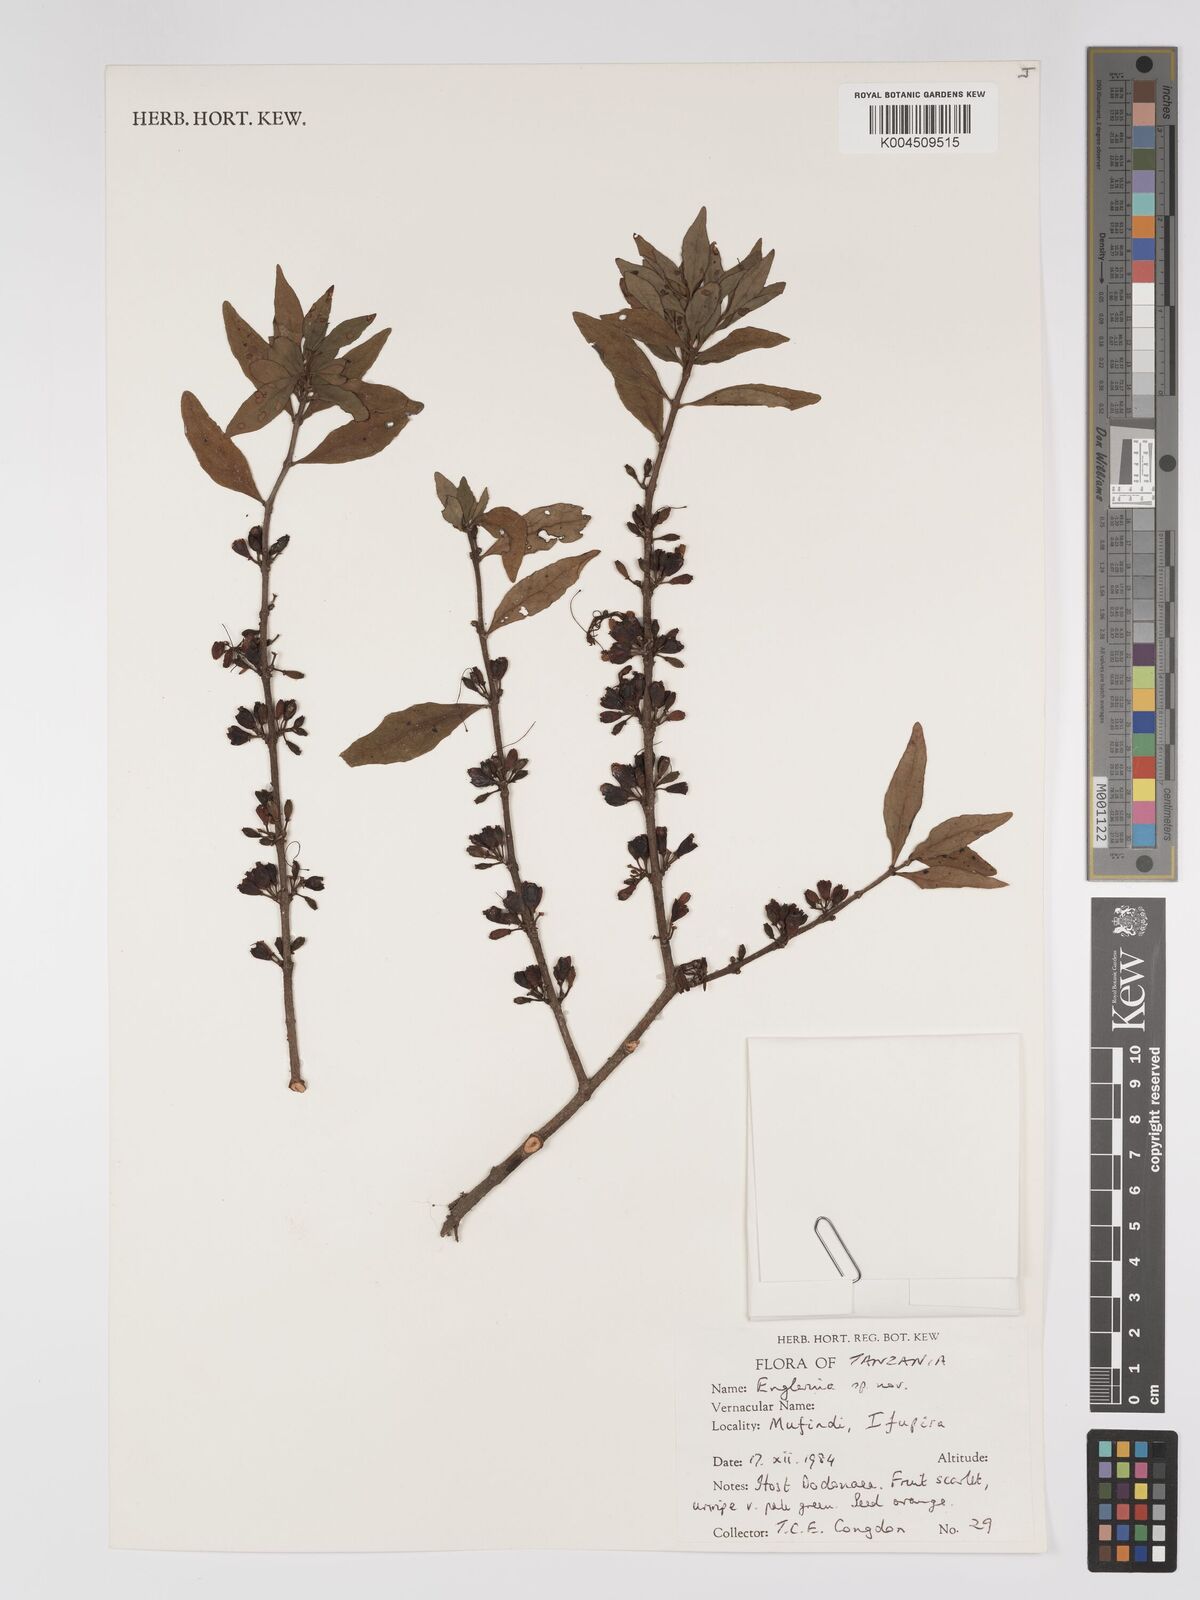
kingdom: Plantae
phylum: Tracheophyta
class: Magnoliopsida
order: Santalales
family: Loranthaceae
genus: Englerina
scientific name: Englerina inaequilatera
